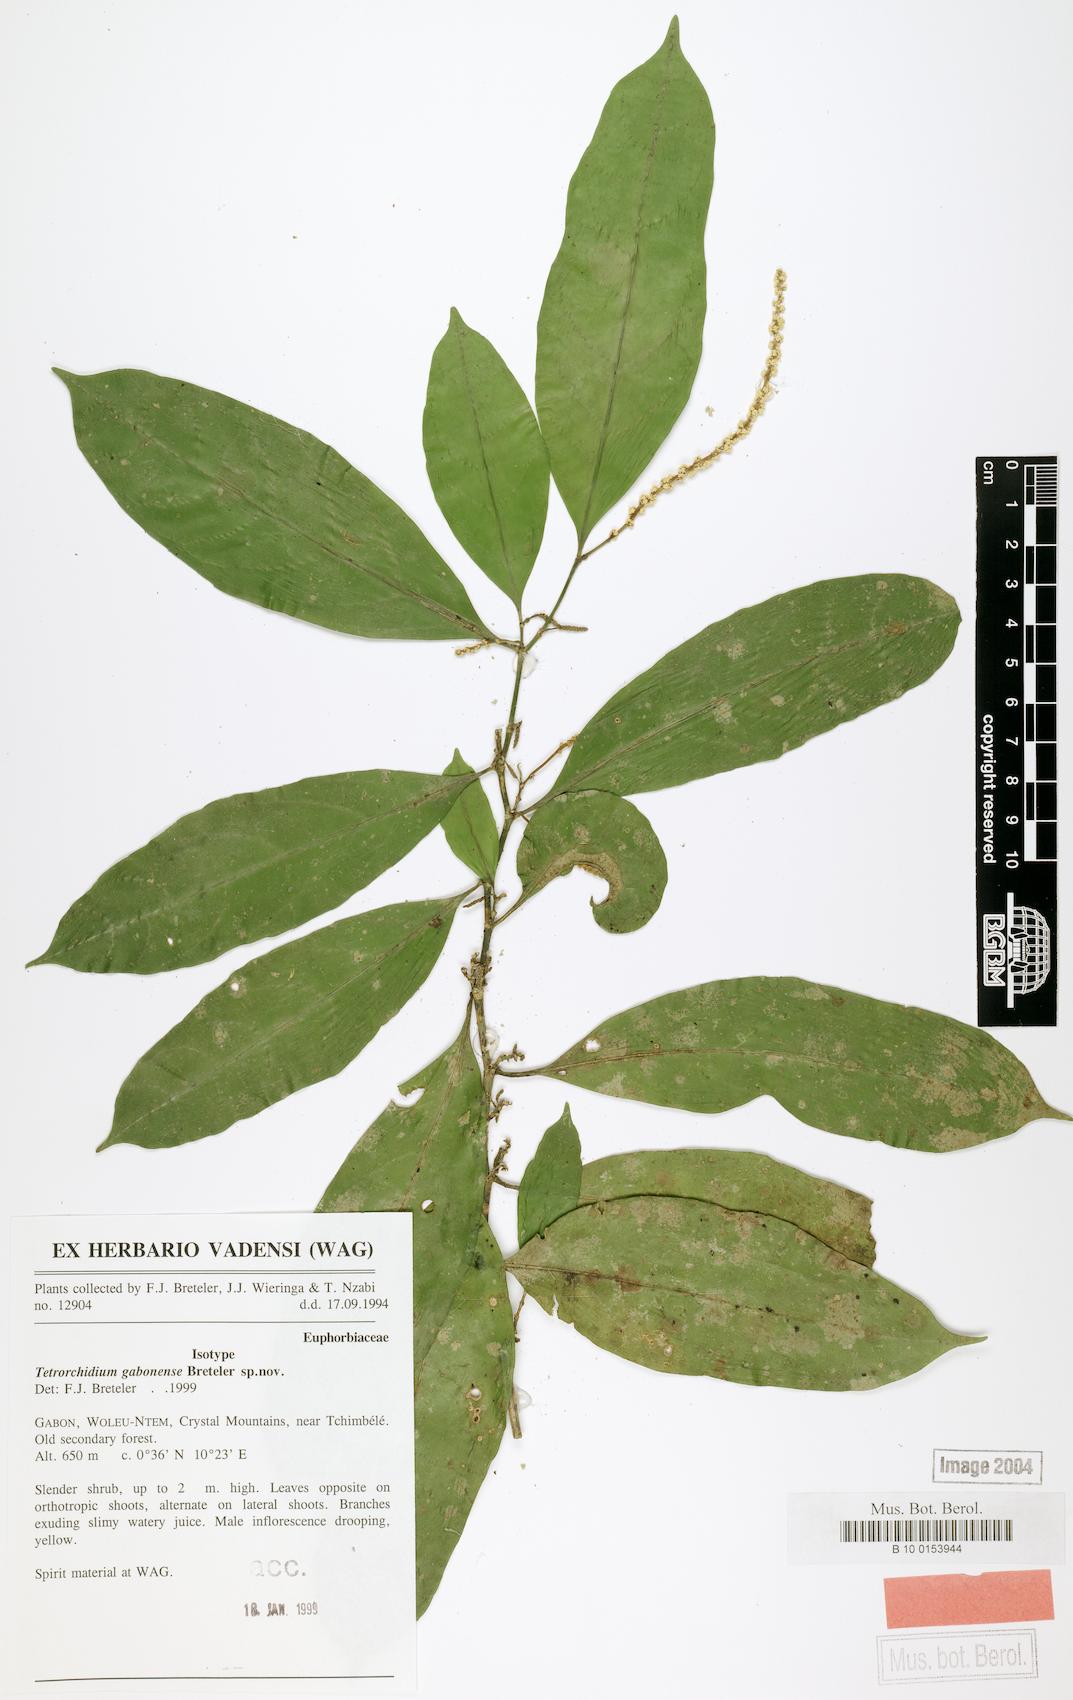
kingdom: Plantae
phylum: Tracheophyta
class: Magnoliopsida
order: Malpighiales
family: Euphorbiaceae
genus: Tetrorchidium
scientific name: Tetrorchidium gabonense
